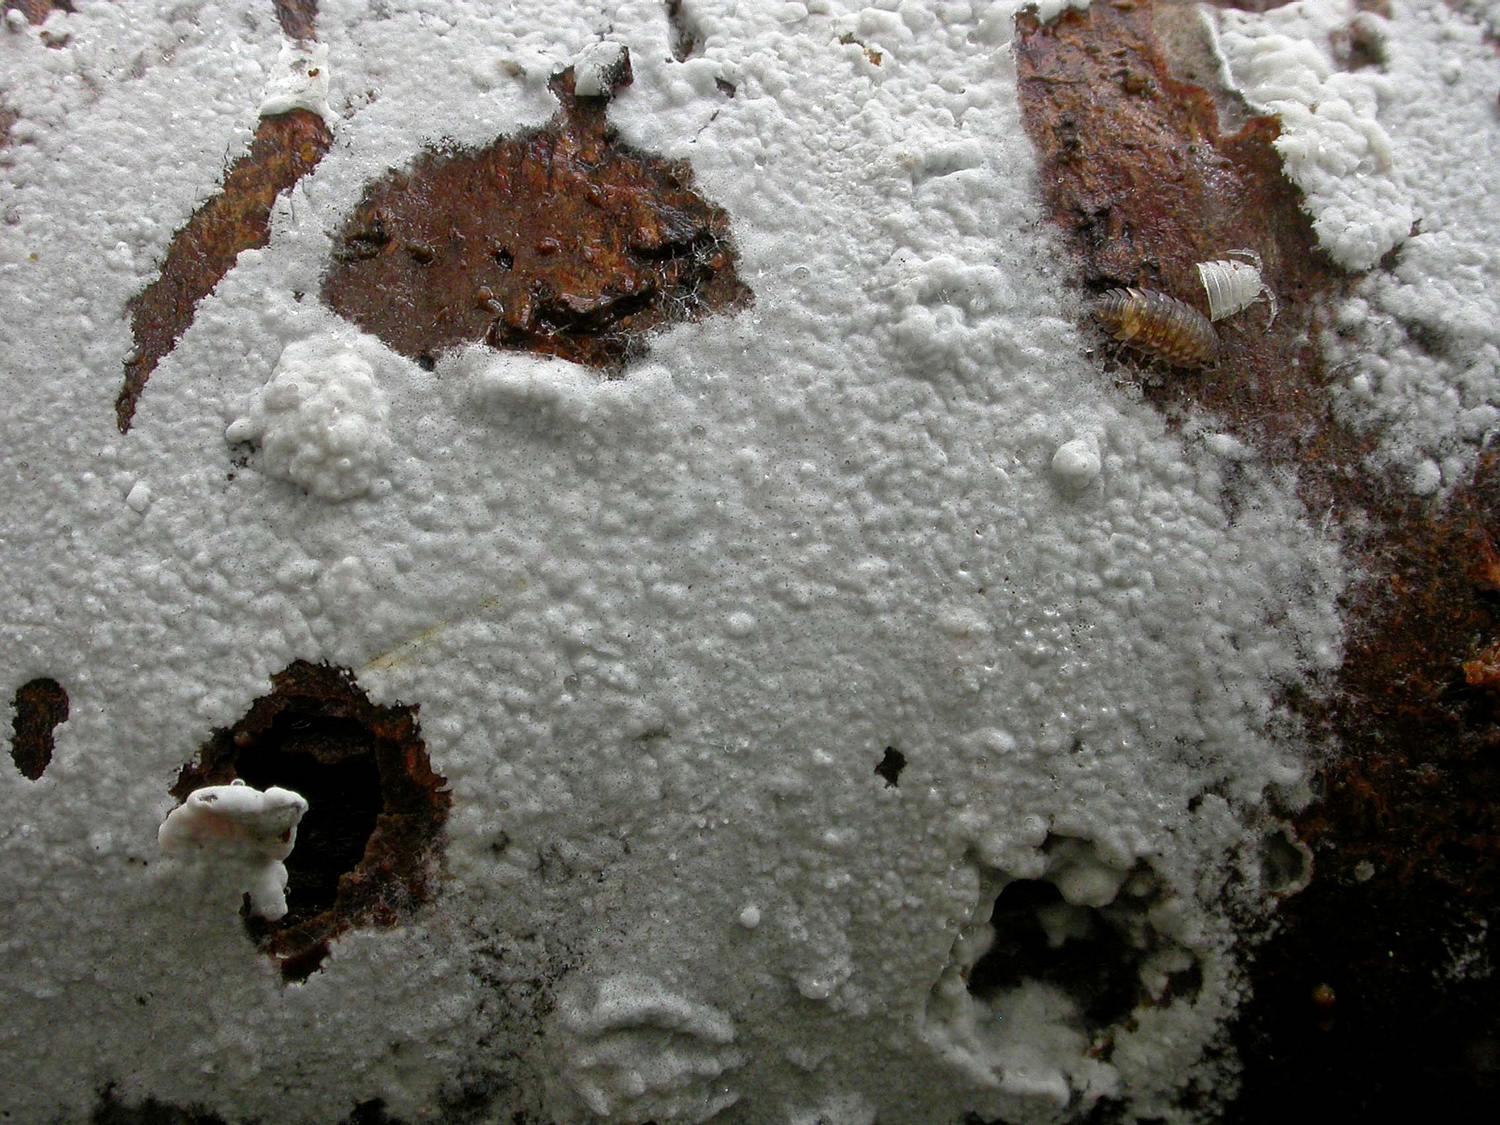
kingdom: Fungi
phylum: Basidiomycota
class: Agaricomycetes
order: Atheliales
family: Atheliaceae
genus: Athelia
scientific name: Athelia epiphylla
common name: almindelig barkhinde
